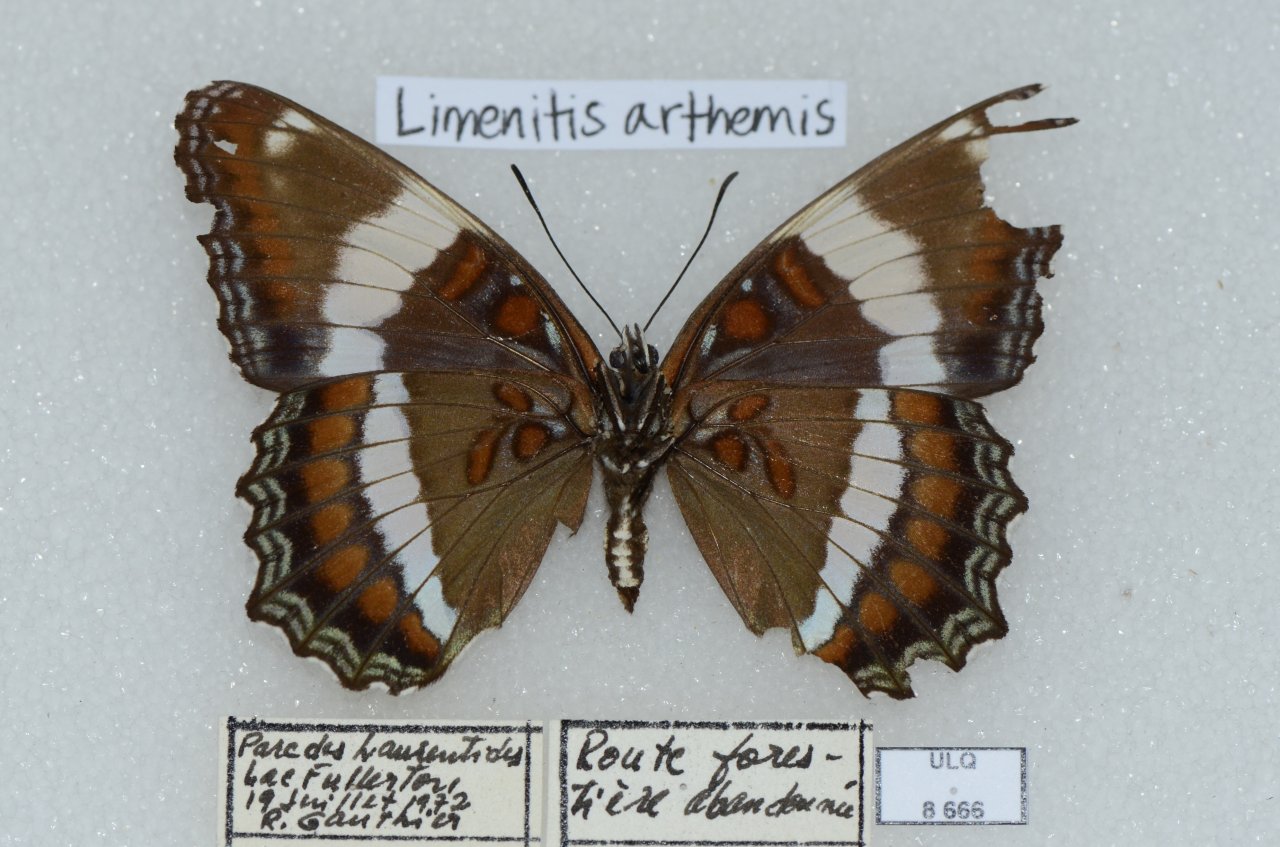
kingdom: Animalia
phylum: Arthropoda
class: Insecta
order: Lepidoptera
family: Nymphalidae
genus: Limenitis
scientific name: Limenitis arthemis
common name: Red-spotted Admiral
